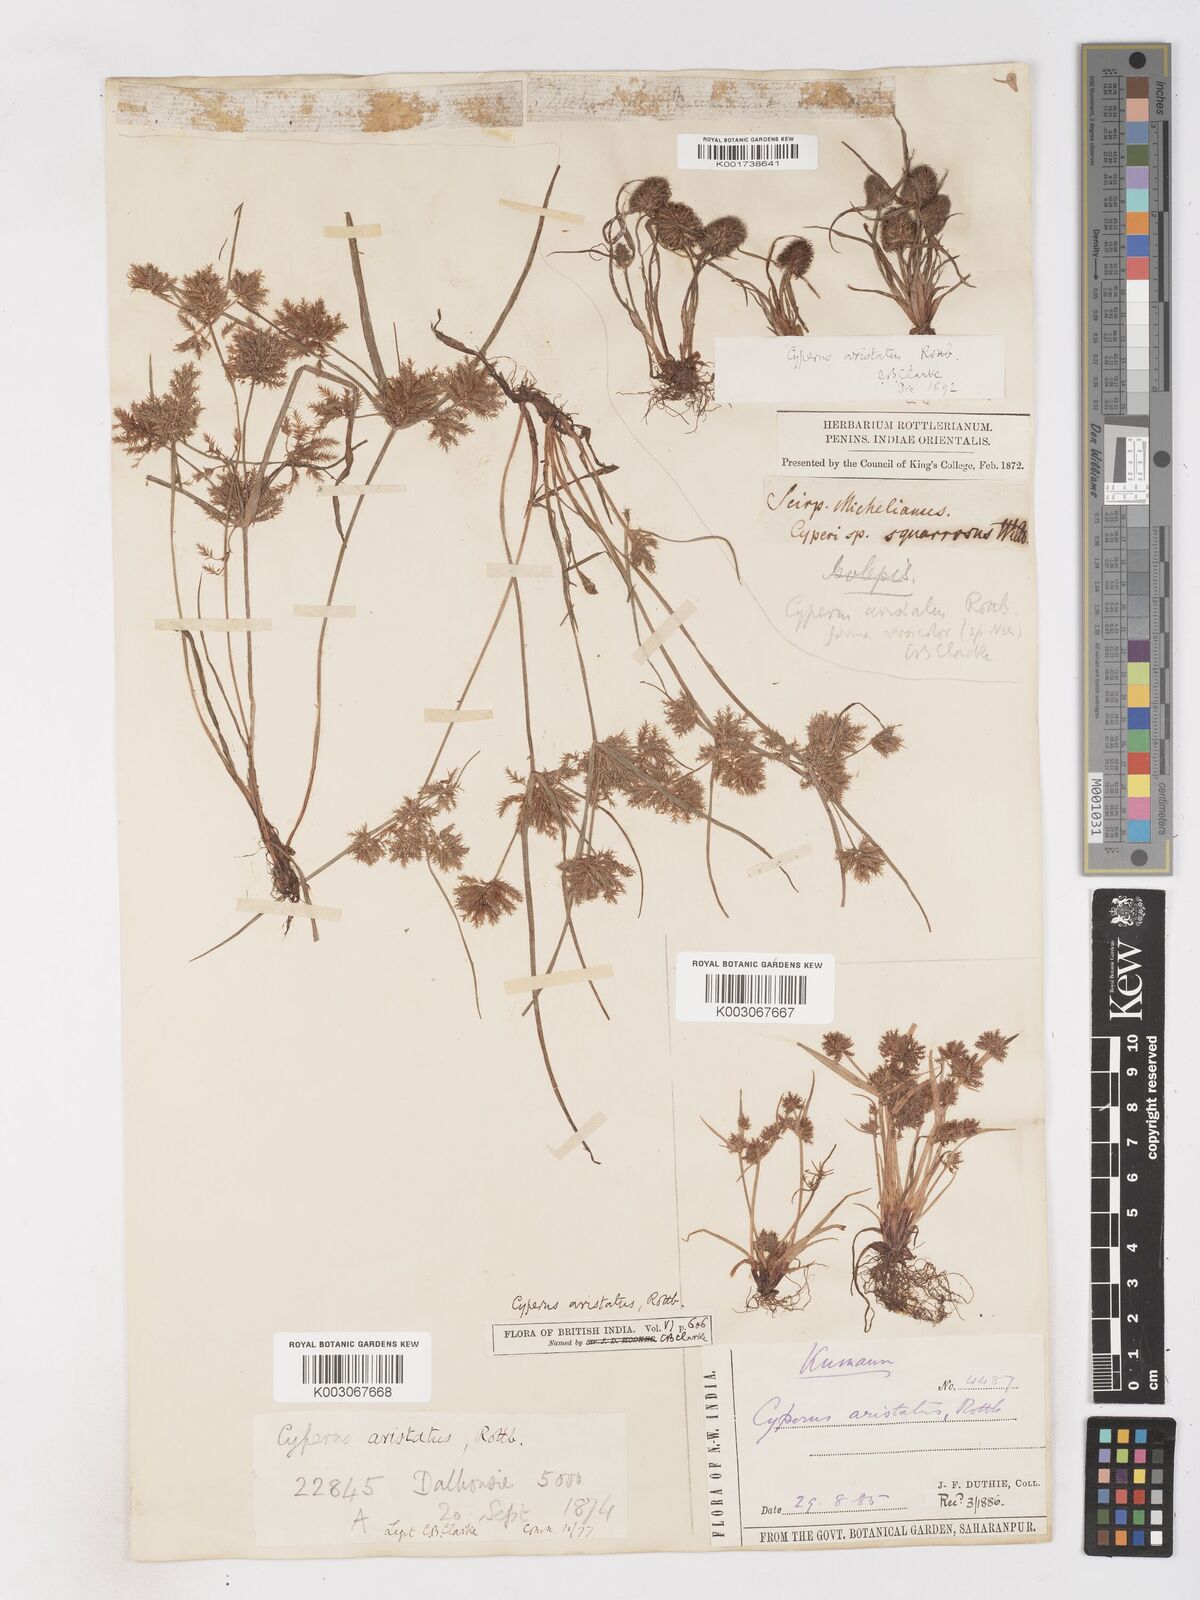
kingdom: Plantae
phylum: Tracheophyta
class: Liliopsida
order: Poales
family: Cyperaceae
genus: Cyperus
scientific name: Cyperus squarrosus
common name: Awned cyperus
